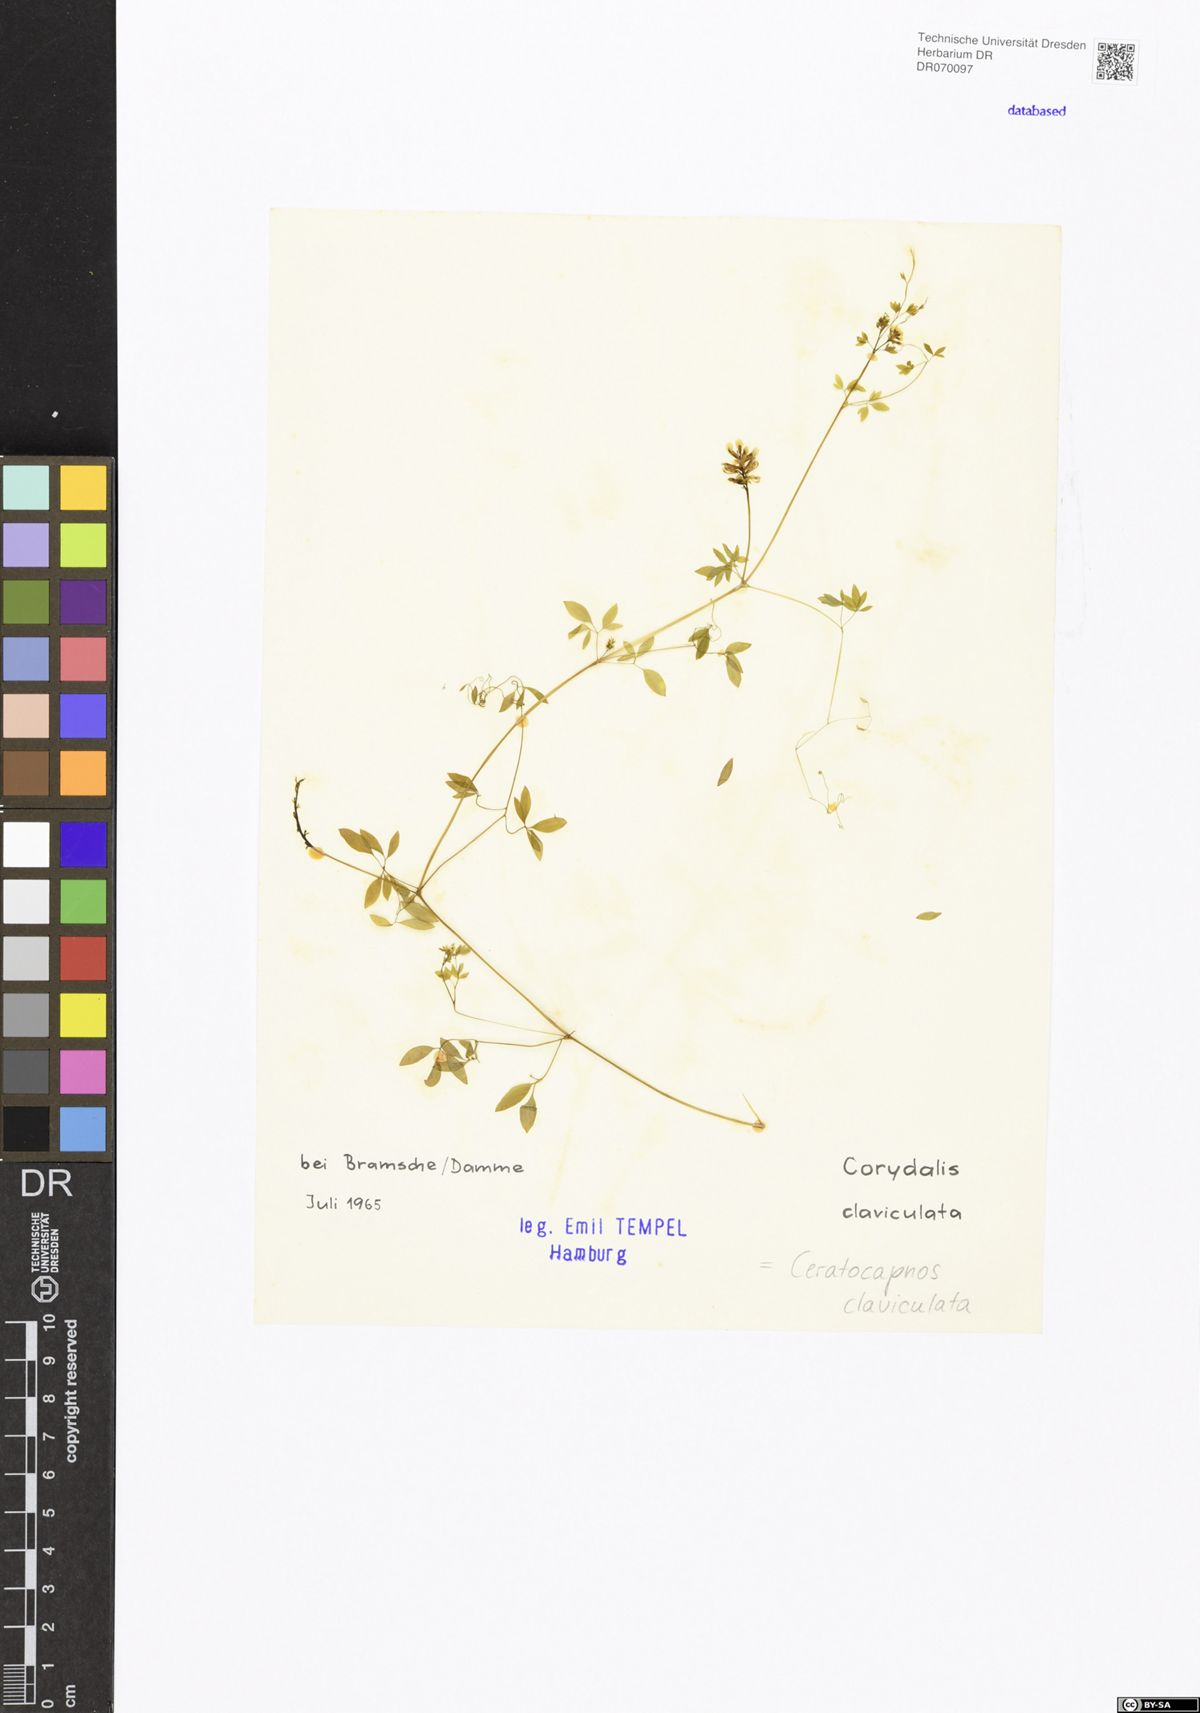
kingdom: Plantae
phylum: Tracheophyta
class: Magnoliopsida
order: Ranunculales
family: Papaveraceae
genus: Ceratocapnos
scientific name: Ceratocapnos claviculata
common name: Climbing corydalis
